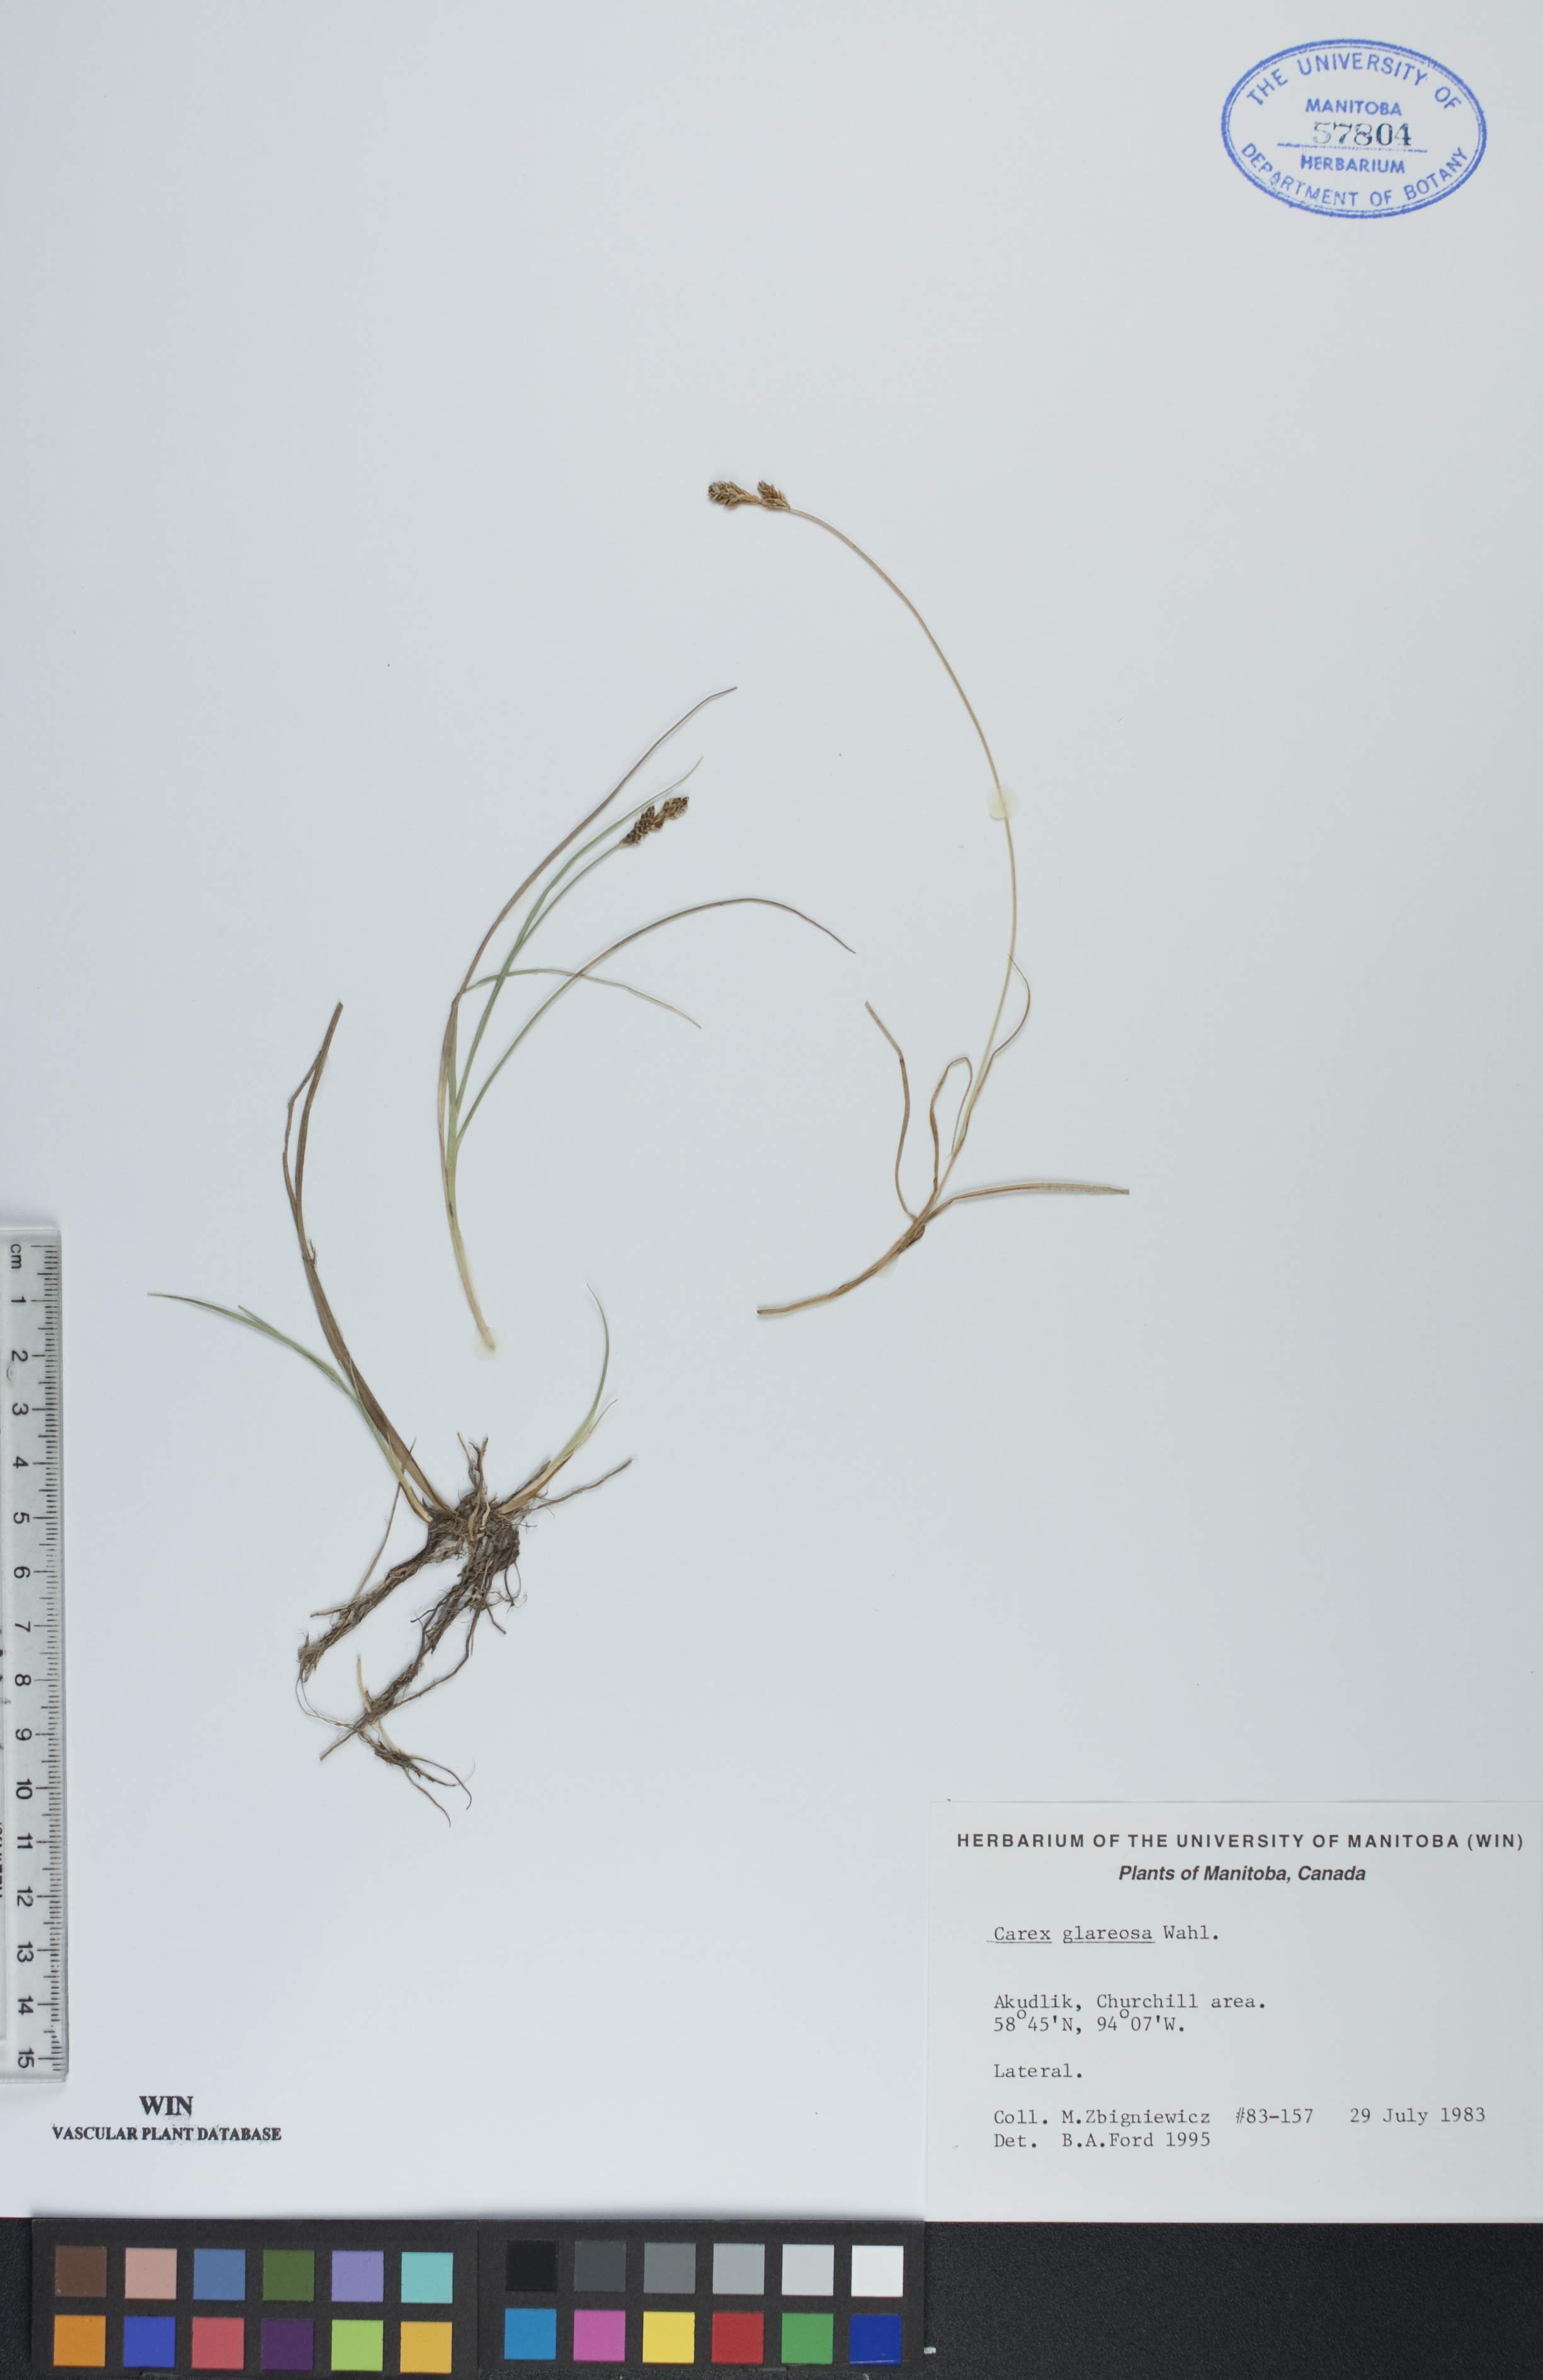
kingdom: Plantae
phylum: Tracheophyta
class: Liliopsida
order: Poales
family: Cyperaceae
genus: Carex
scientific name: Carex glareosa
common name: Clustered sedge
